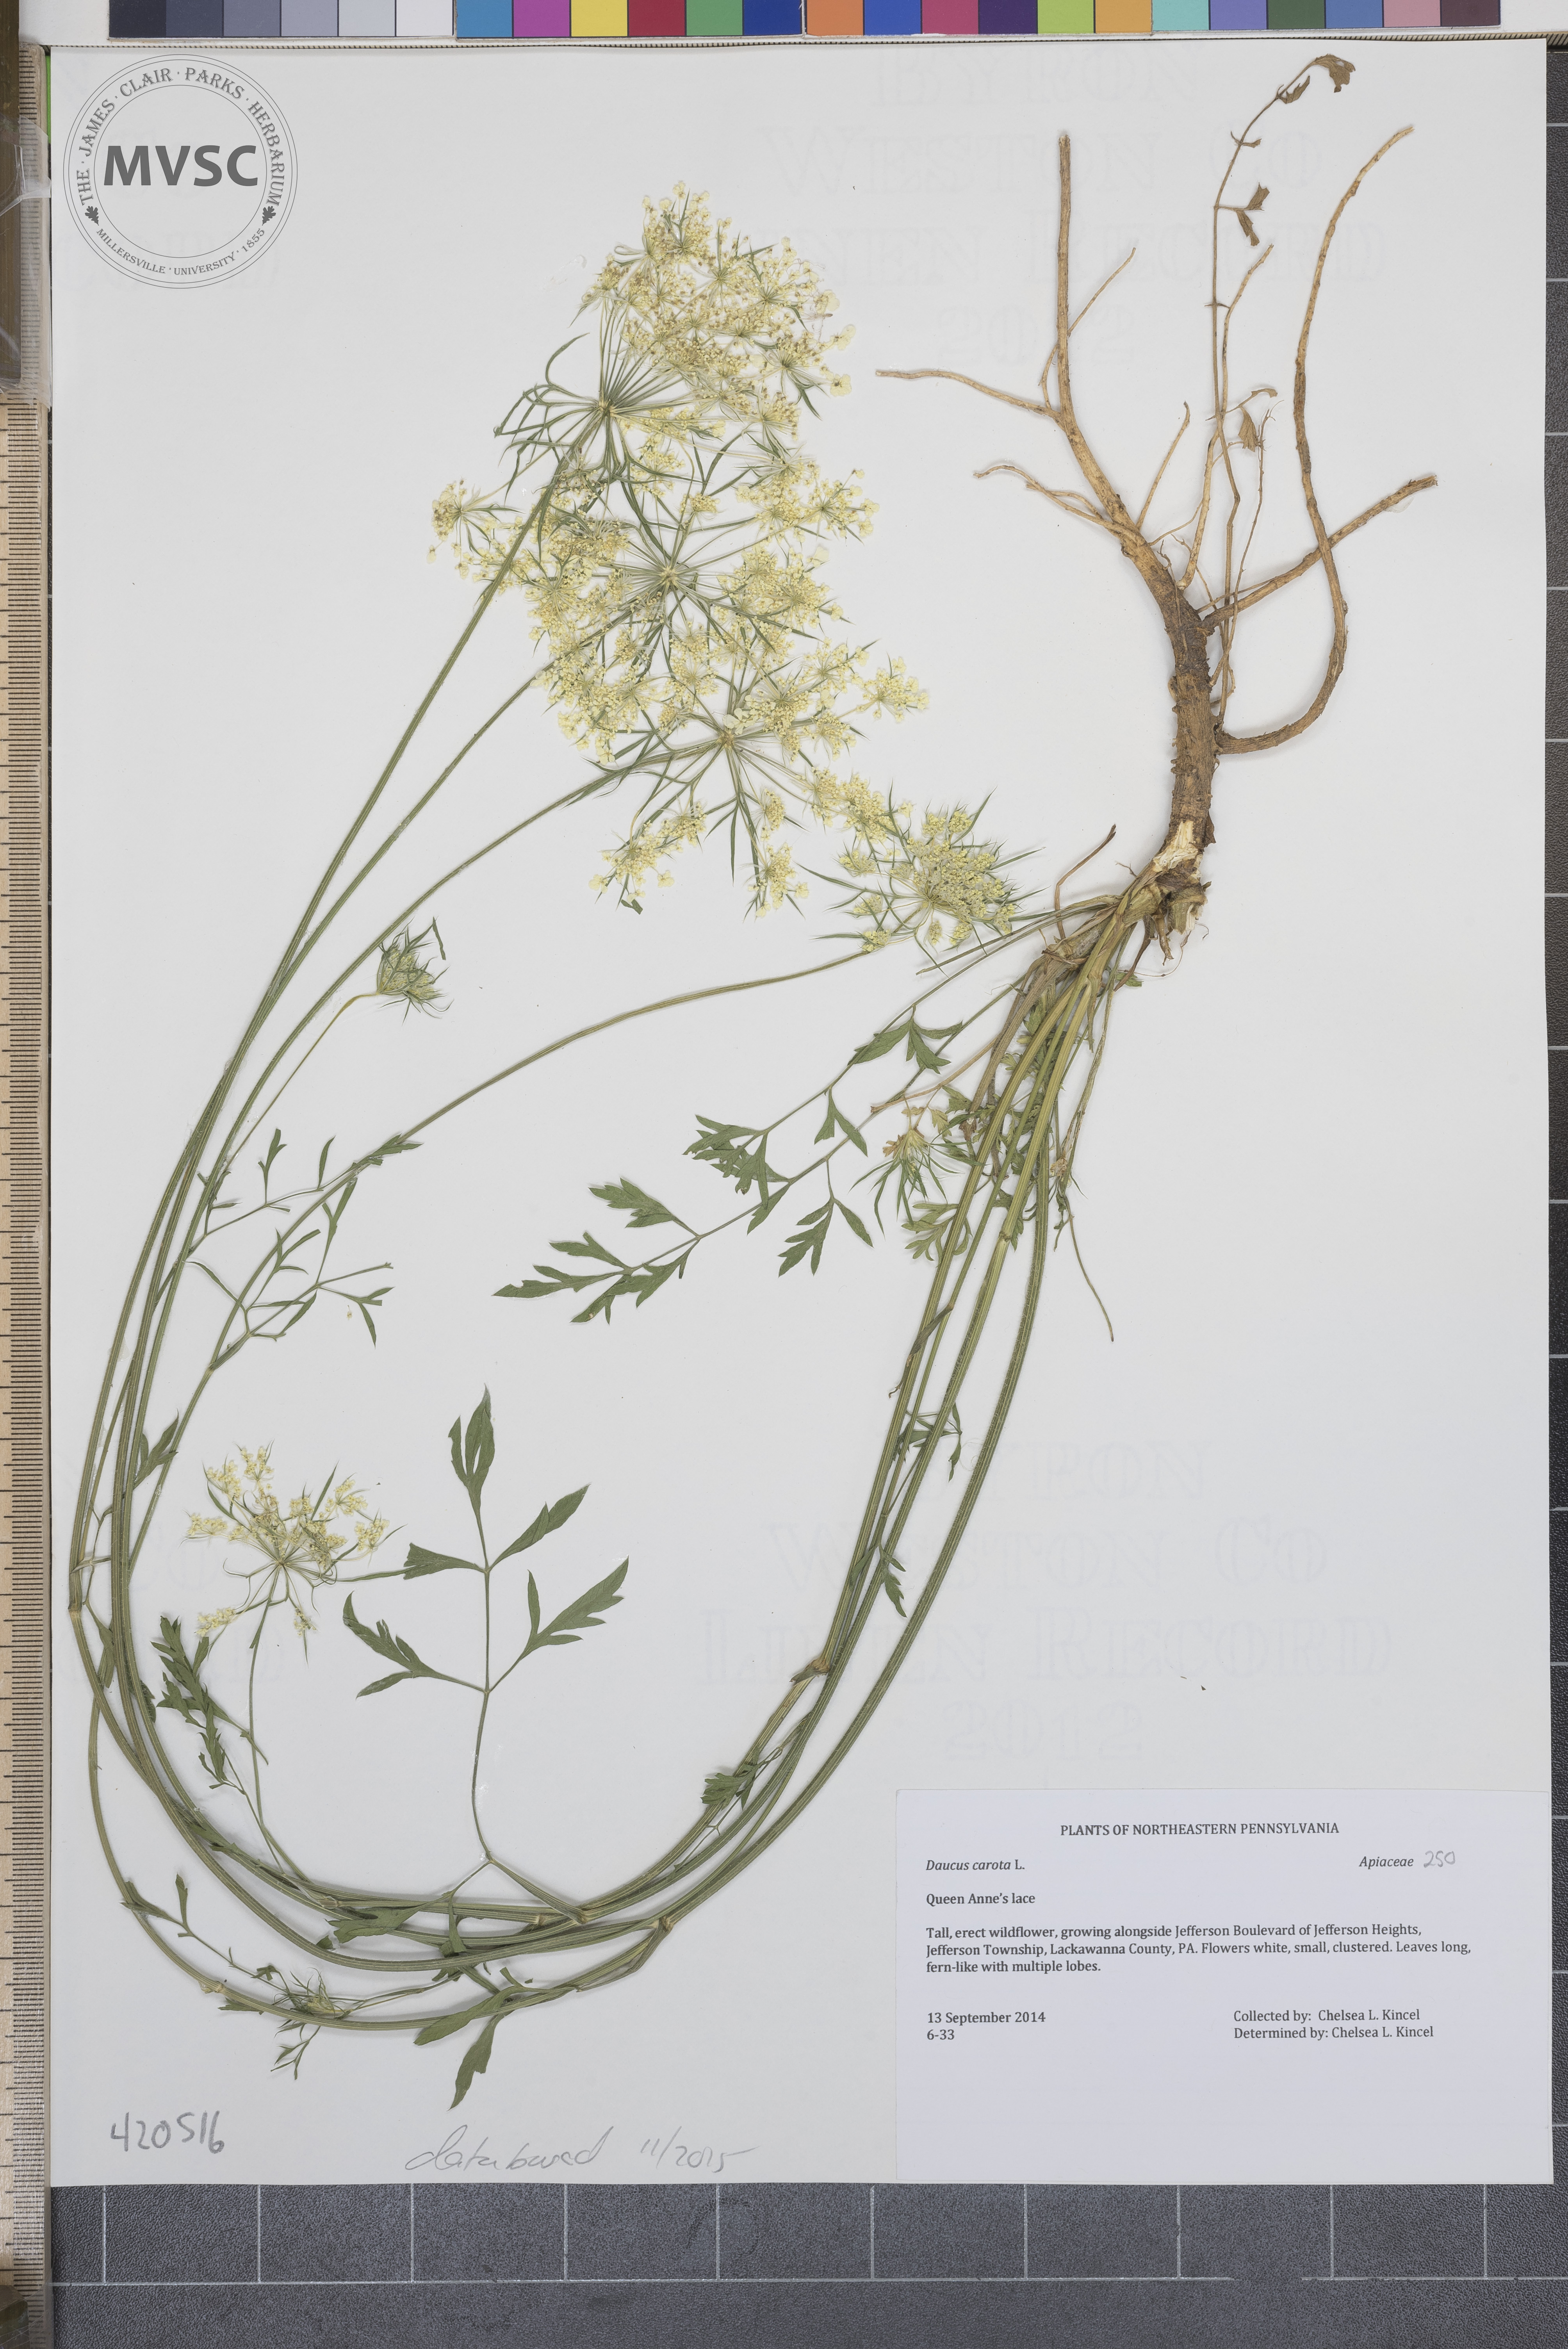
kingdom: Plantae
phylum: Tracheophyta
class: Magnoliopsida
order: Apiales
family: Apiaceae
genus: Daucus
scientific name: Daucus carota
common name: Queen Anne's Lace
